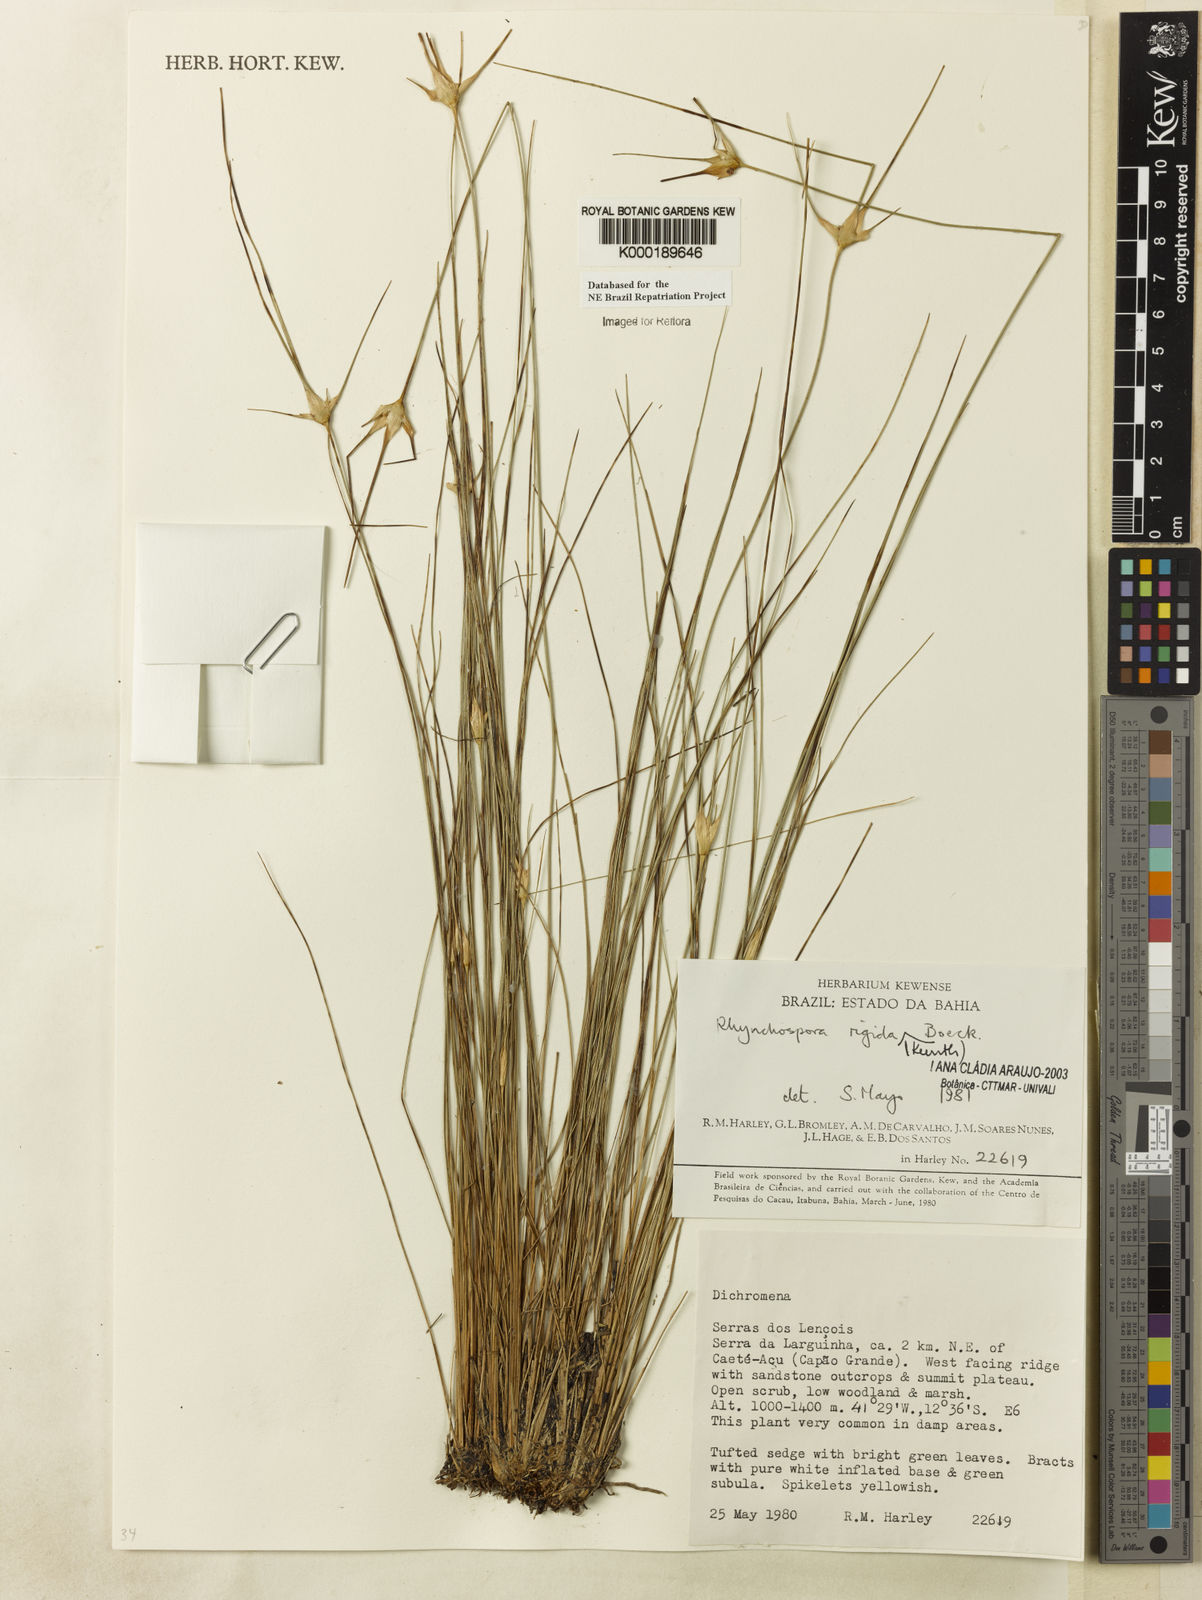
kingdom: Plantae
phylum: Tracheophyta
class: Liliopsida
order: Poales
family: Cyperaceae
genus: Rhynchospora
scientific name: Rhynchospora consanguinea
